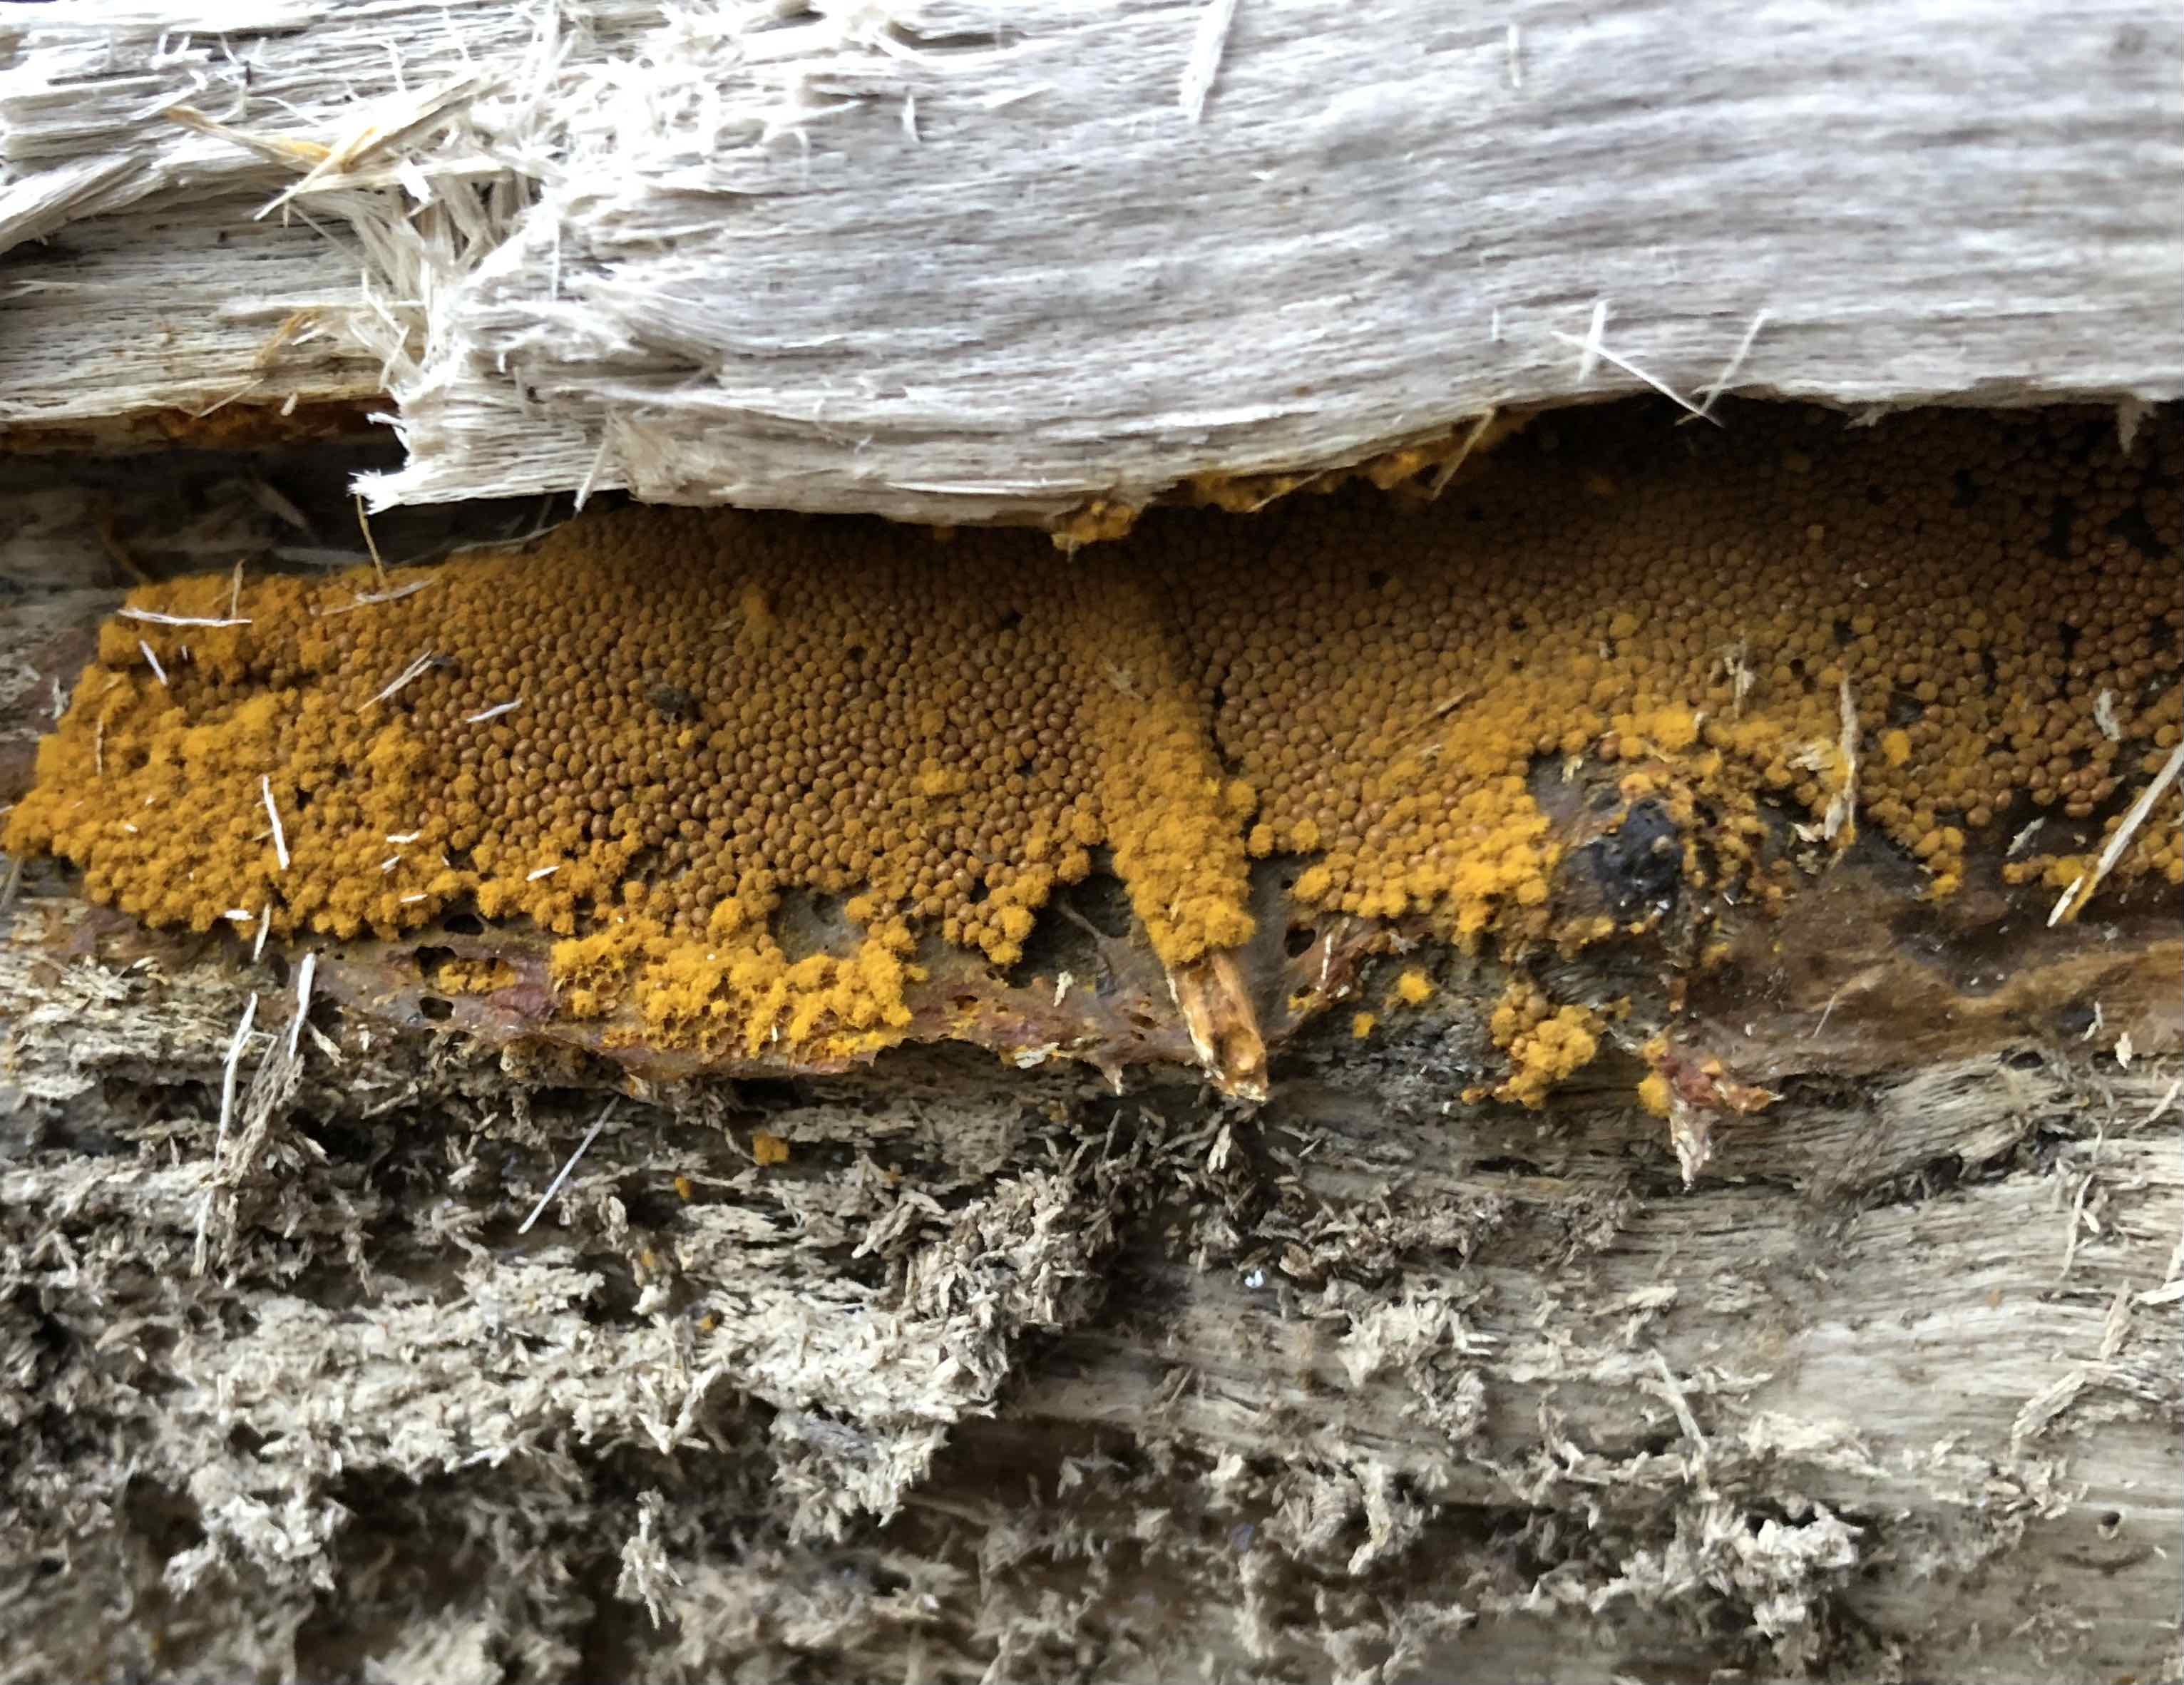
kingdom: Protozoa
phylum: Mycetozoa
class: Myxomycetes
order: Trichiales
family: Trichiaceae
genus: Trichia
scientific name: Trichia
